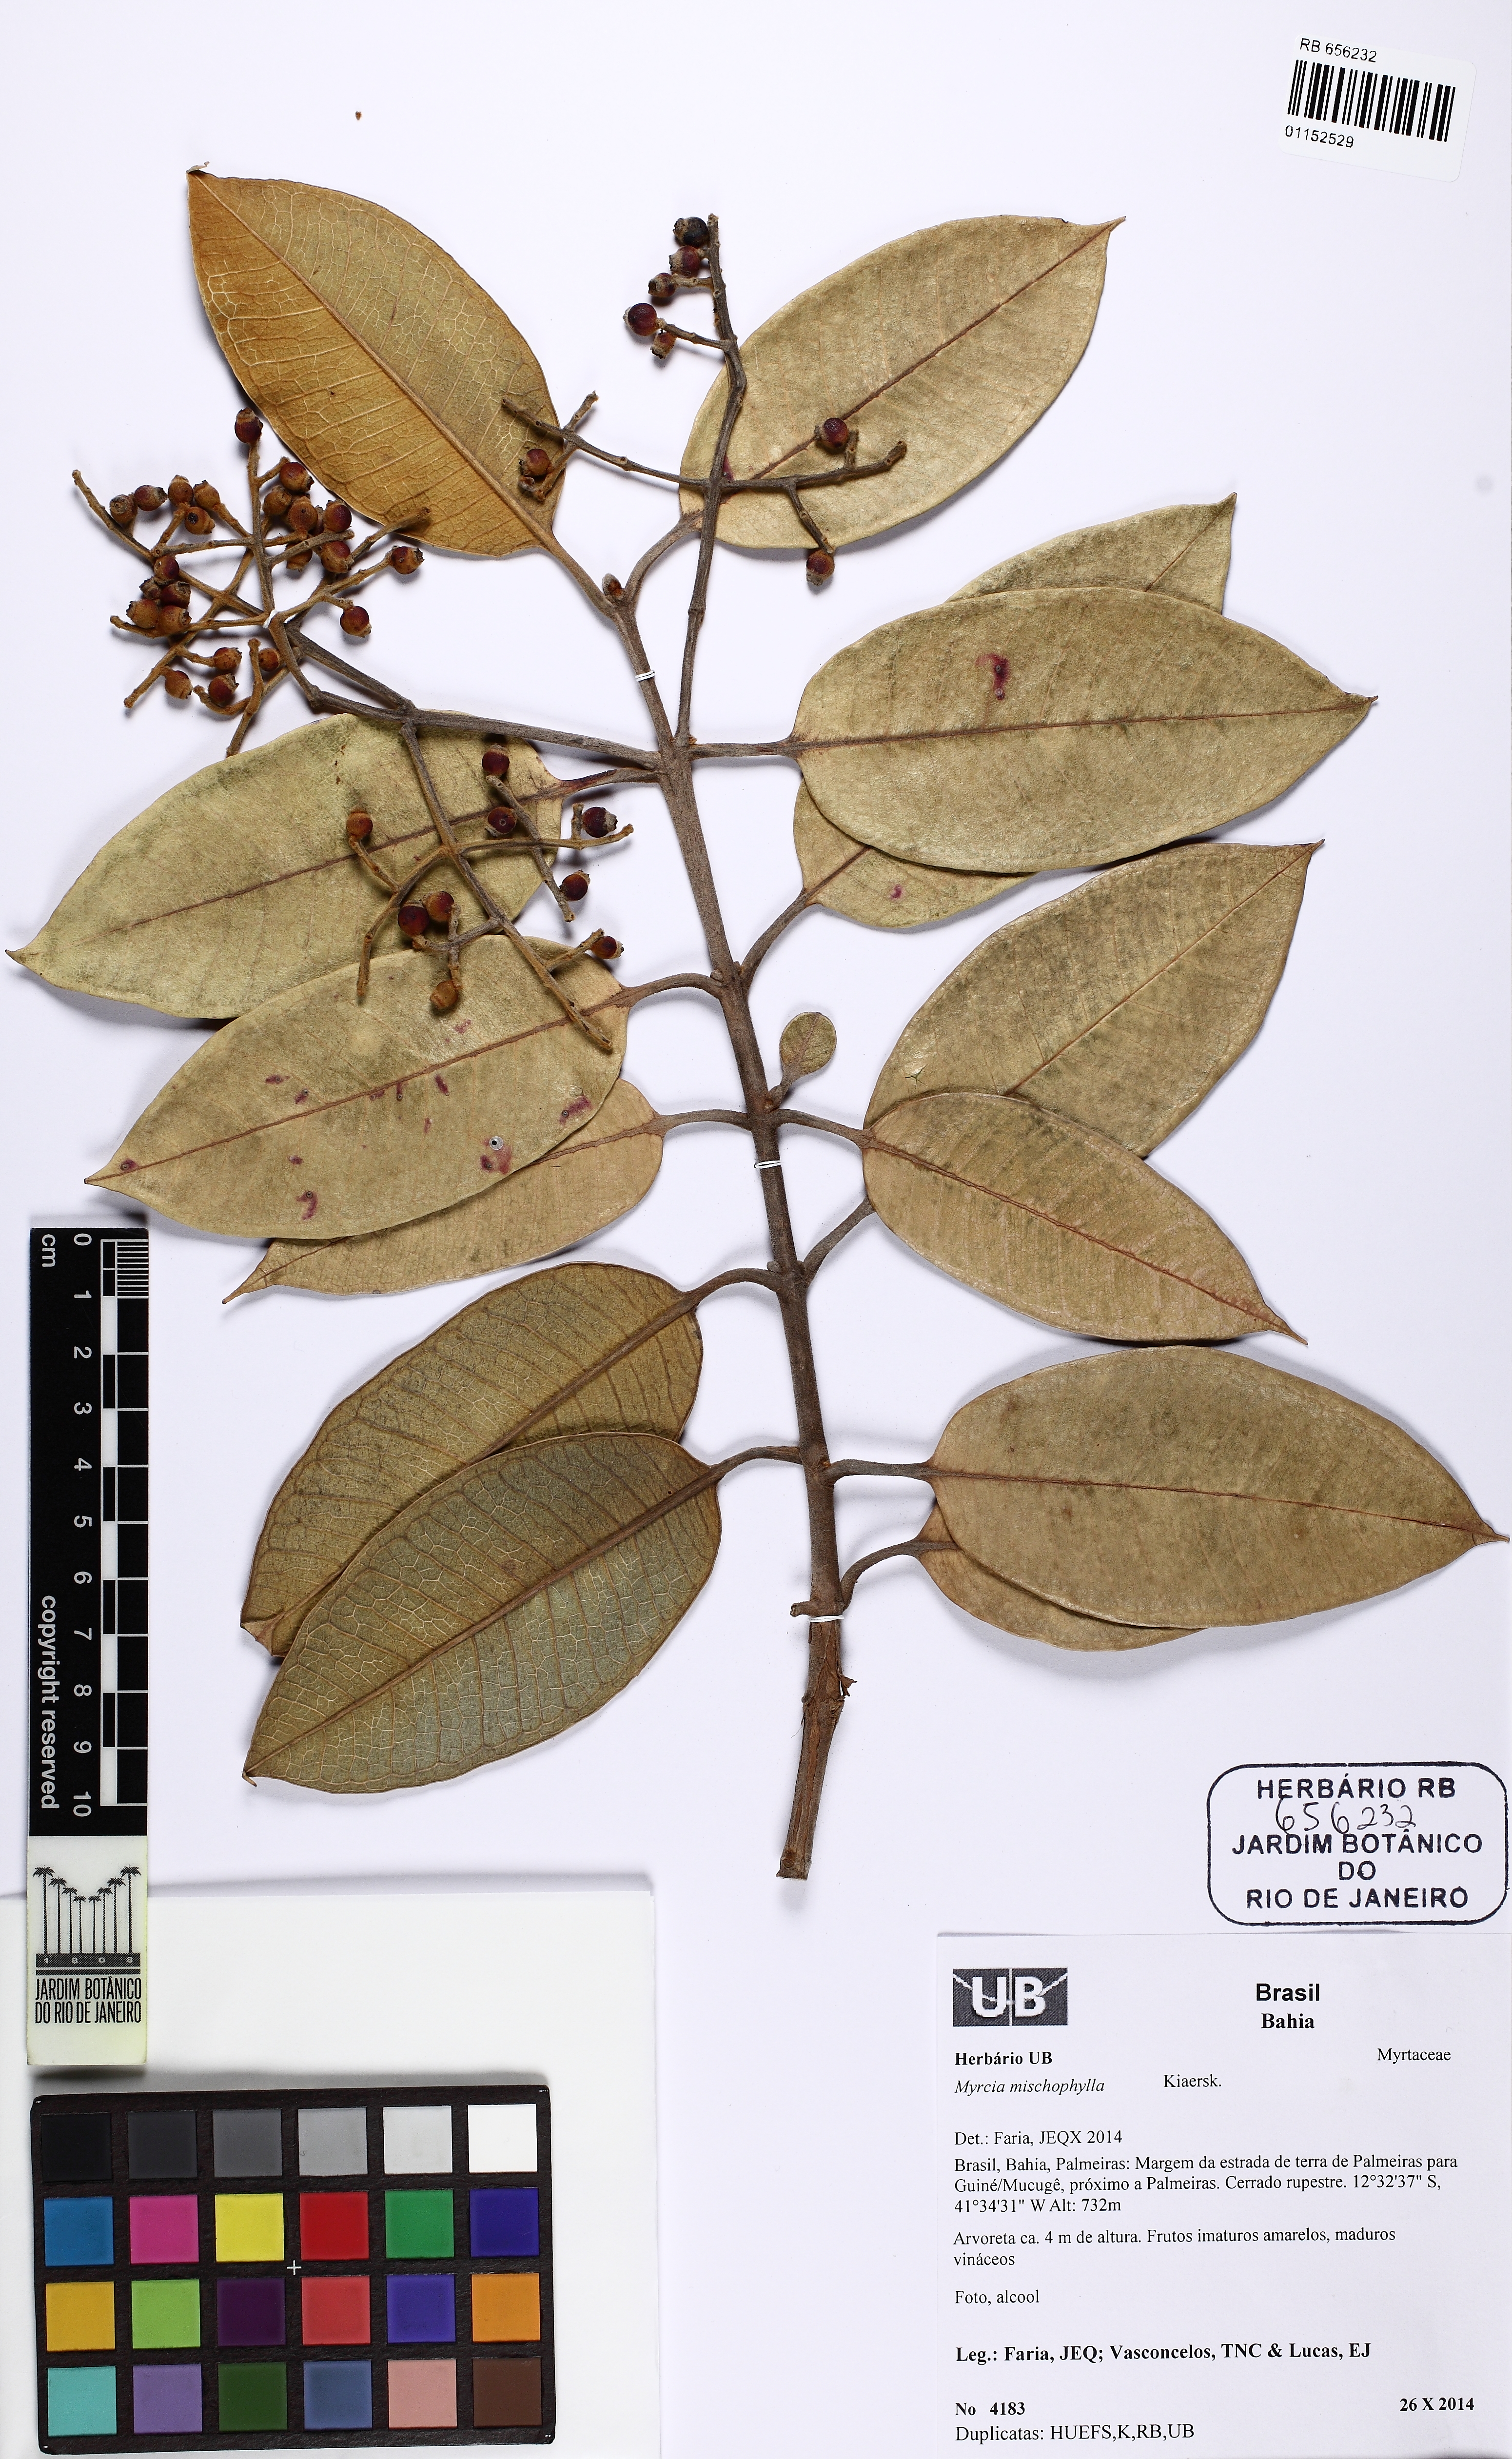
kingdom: Plantae
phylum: Tracheophyta
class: Magnoliopsida
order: Myrtales
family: Myrtaceae
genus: Myrcia
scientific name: Myrcia mischophylla
